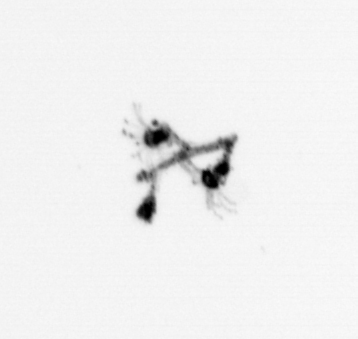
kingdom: Animalia
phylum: Cnidaria
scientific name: Cnidaria
